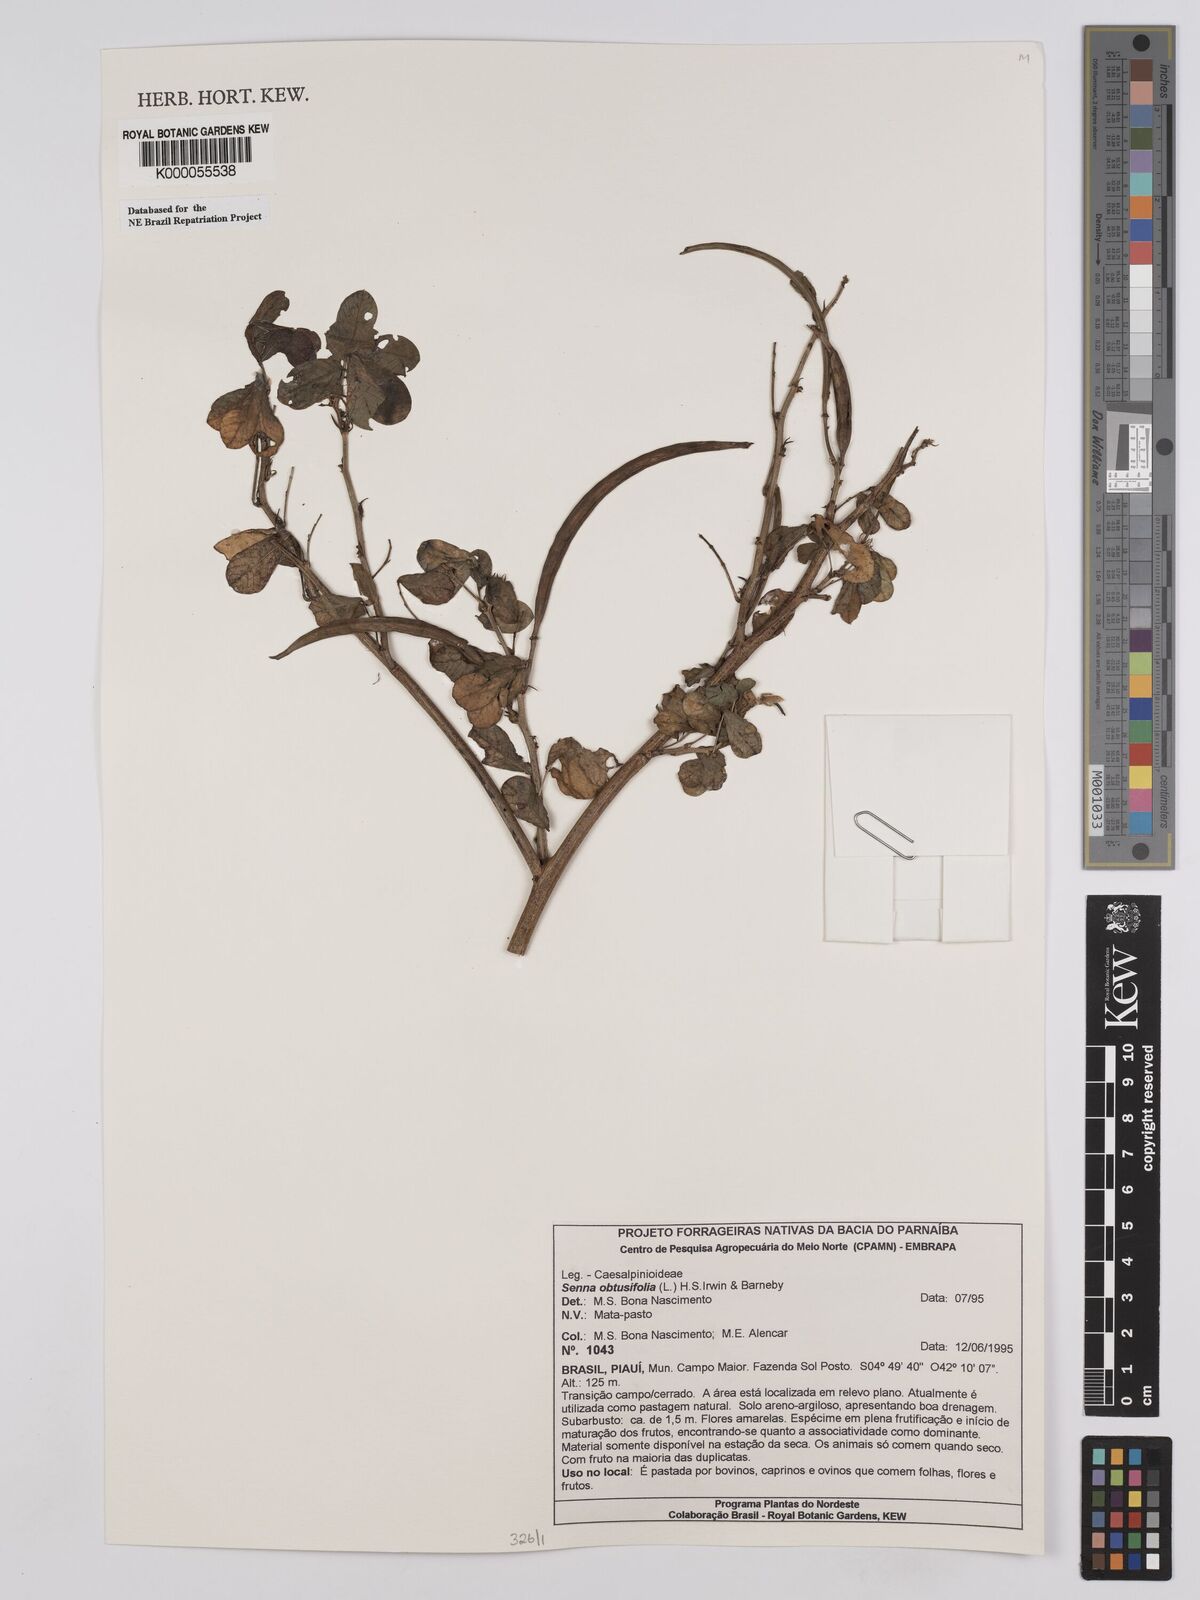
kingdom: Plantae
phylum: Tracheophyta
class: Magnoliopsida
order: Fabales
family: Fabaceae
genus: Senna
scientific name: Senna obtusifolia
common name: Java-bean
